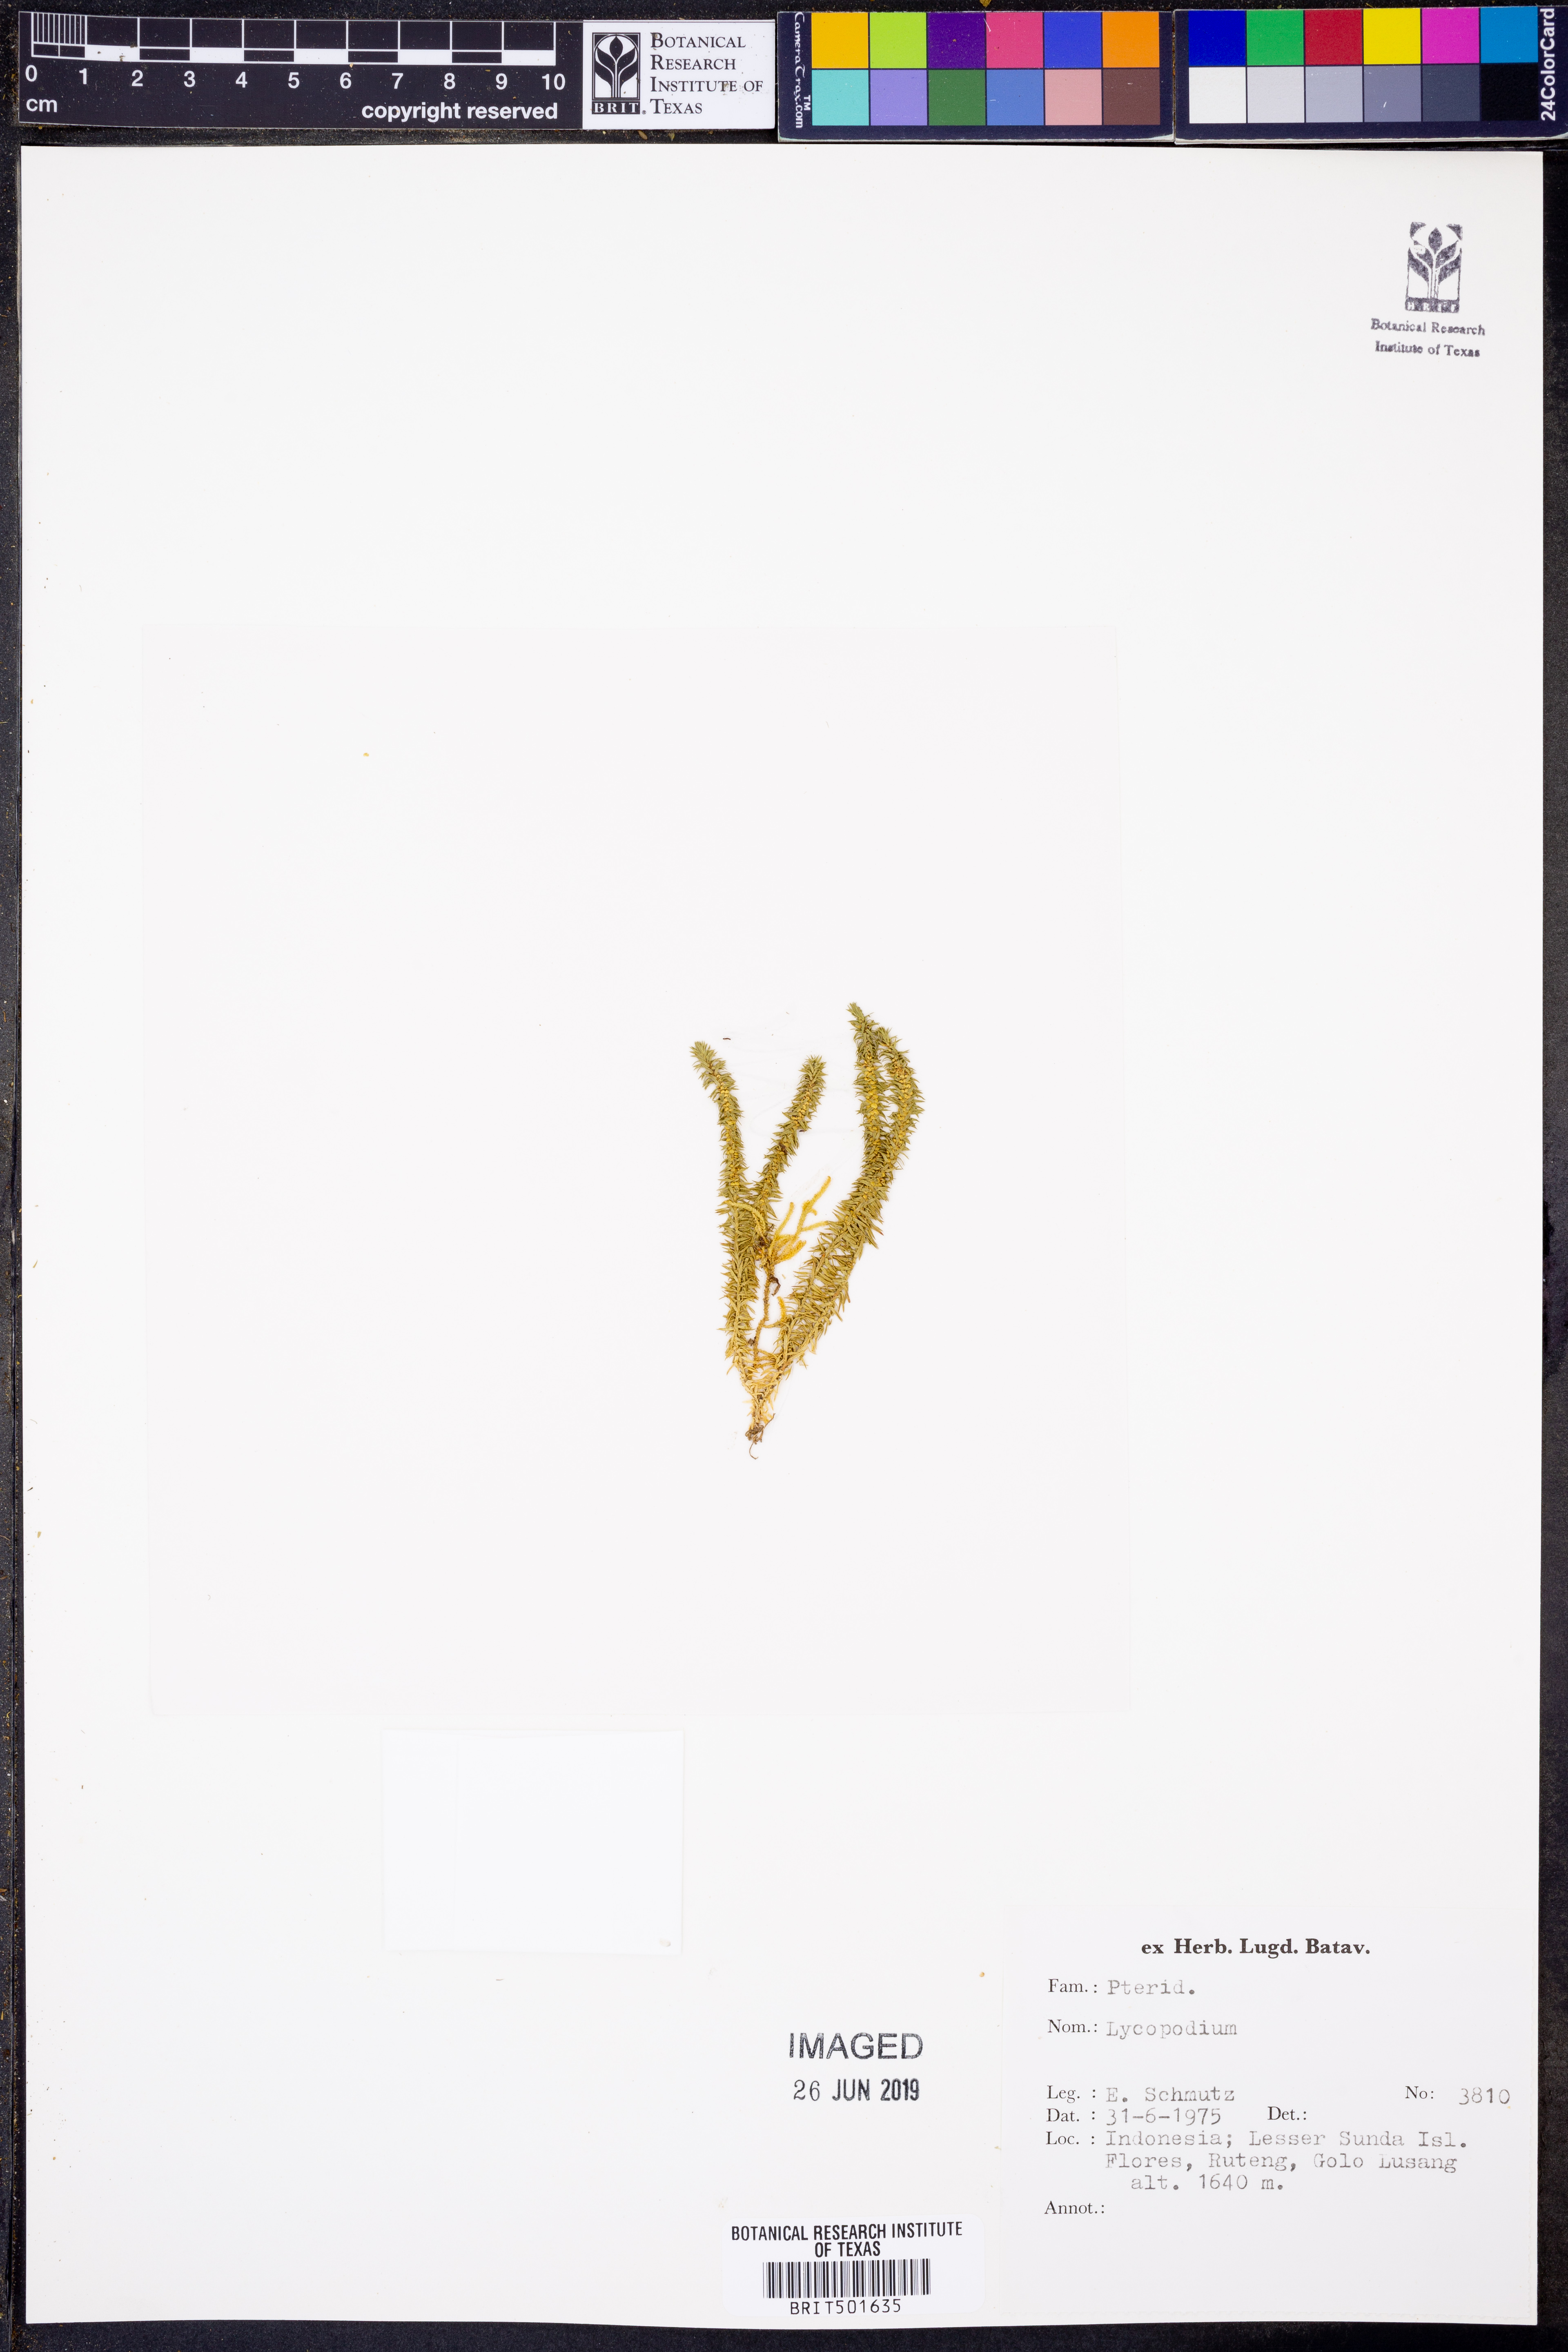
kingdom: Plantae
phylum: Tracheophyta
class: Lycopodiopsida
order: Lycopodiales
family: Lycopodiaceae
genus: Lycopodium
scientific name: Lycopodium
